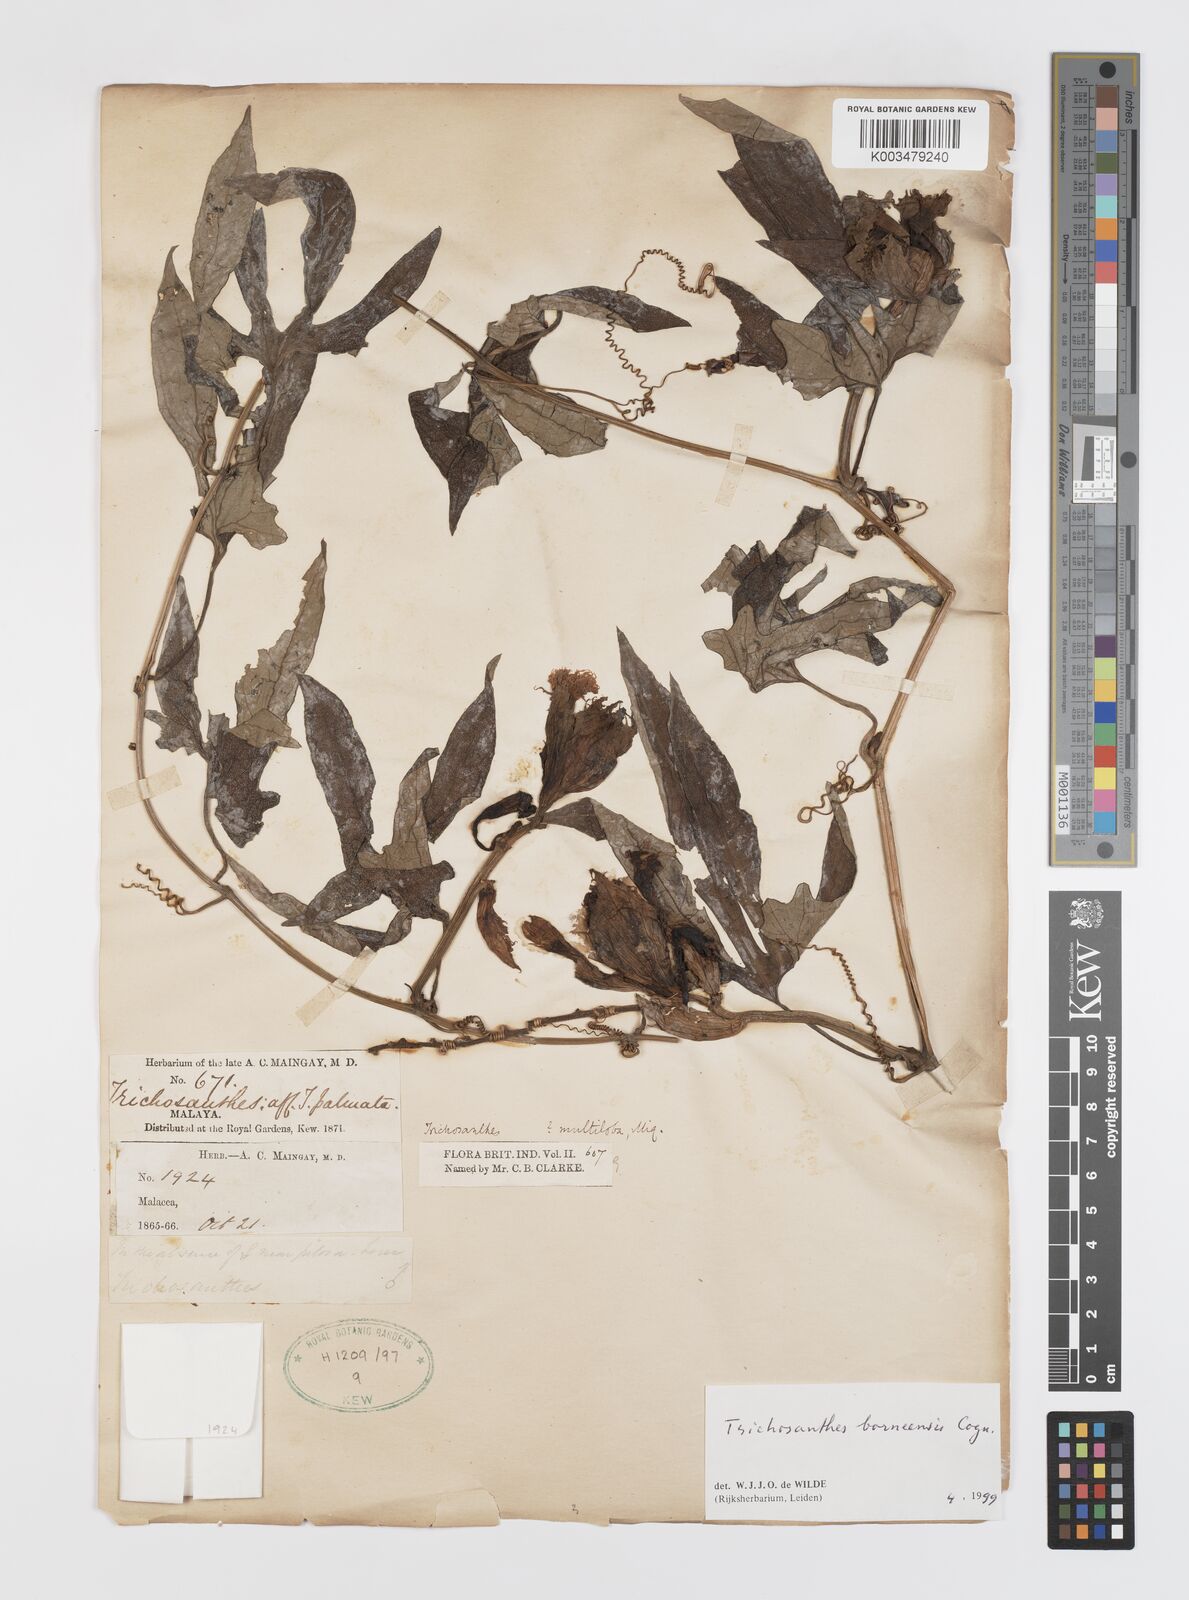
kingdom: Plantae
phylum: Tracheophyta
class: Magnoliopsida
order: Cucurbitales
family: Cucurbitaceae
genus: Trichosanthes
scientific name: Trichosanthes borneensis
